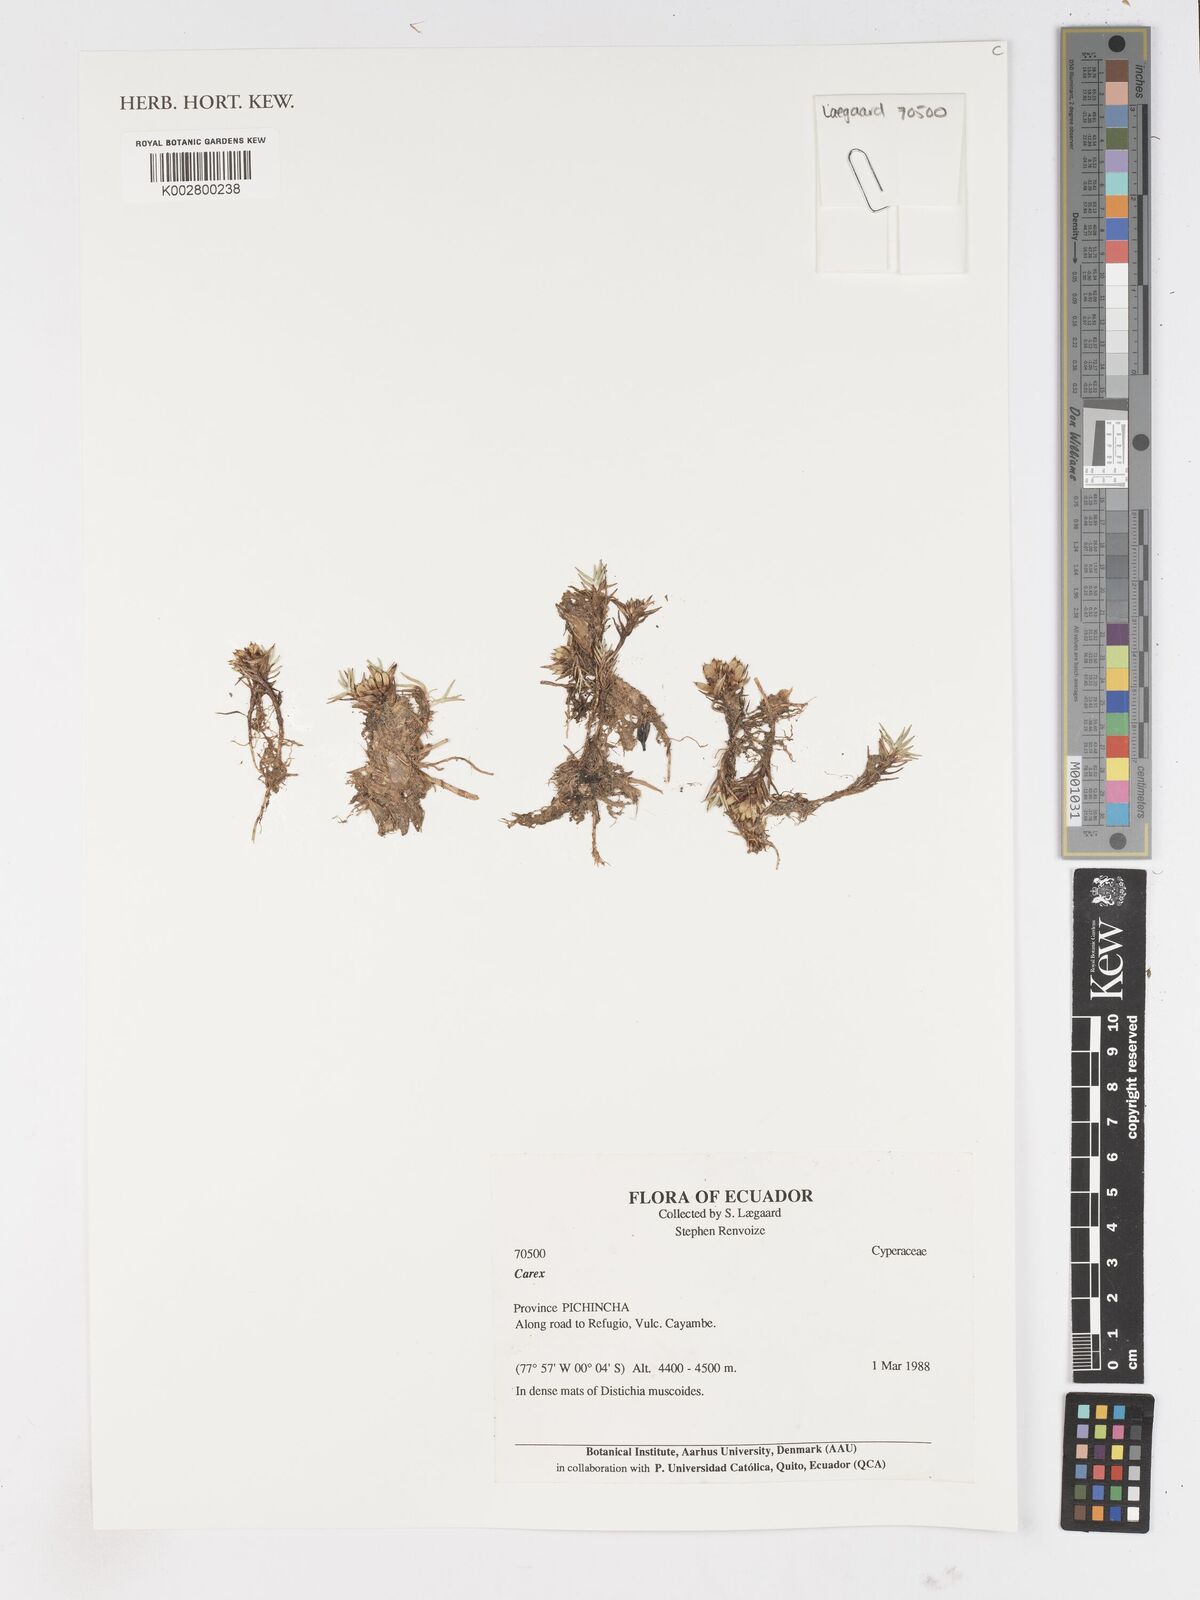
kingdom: Plantae
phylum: Tracheophyta
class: Liliopsida
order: Poales
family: Cyperaceae
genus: Carex
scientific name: Carex
